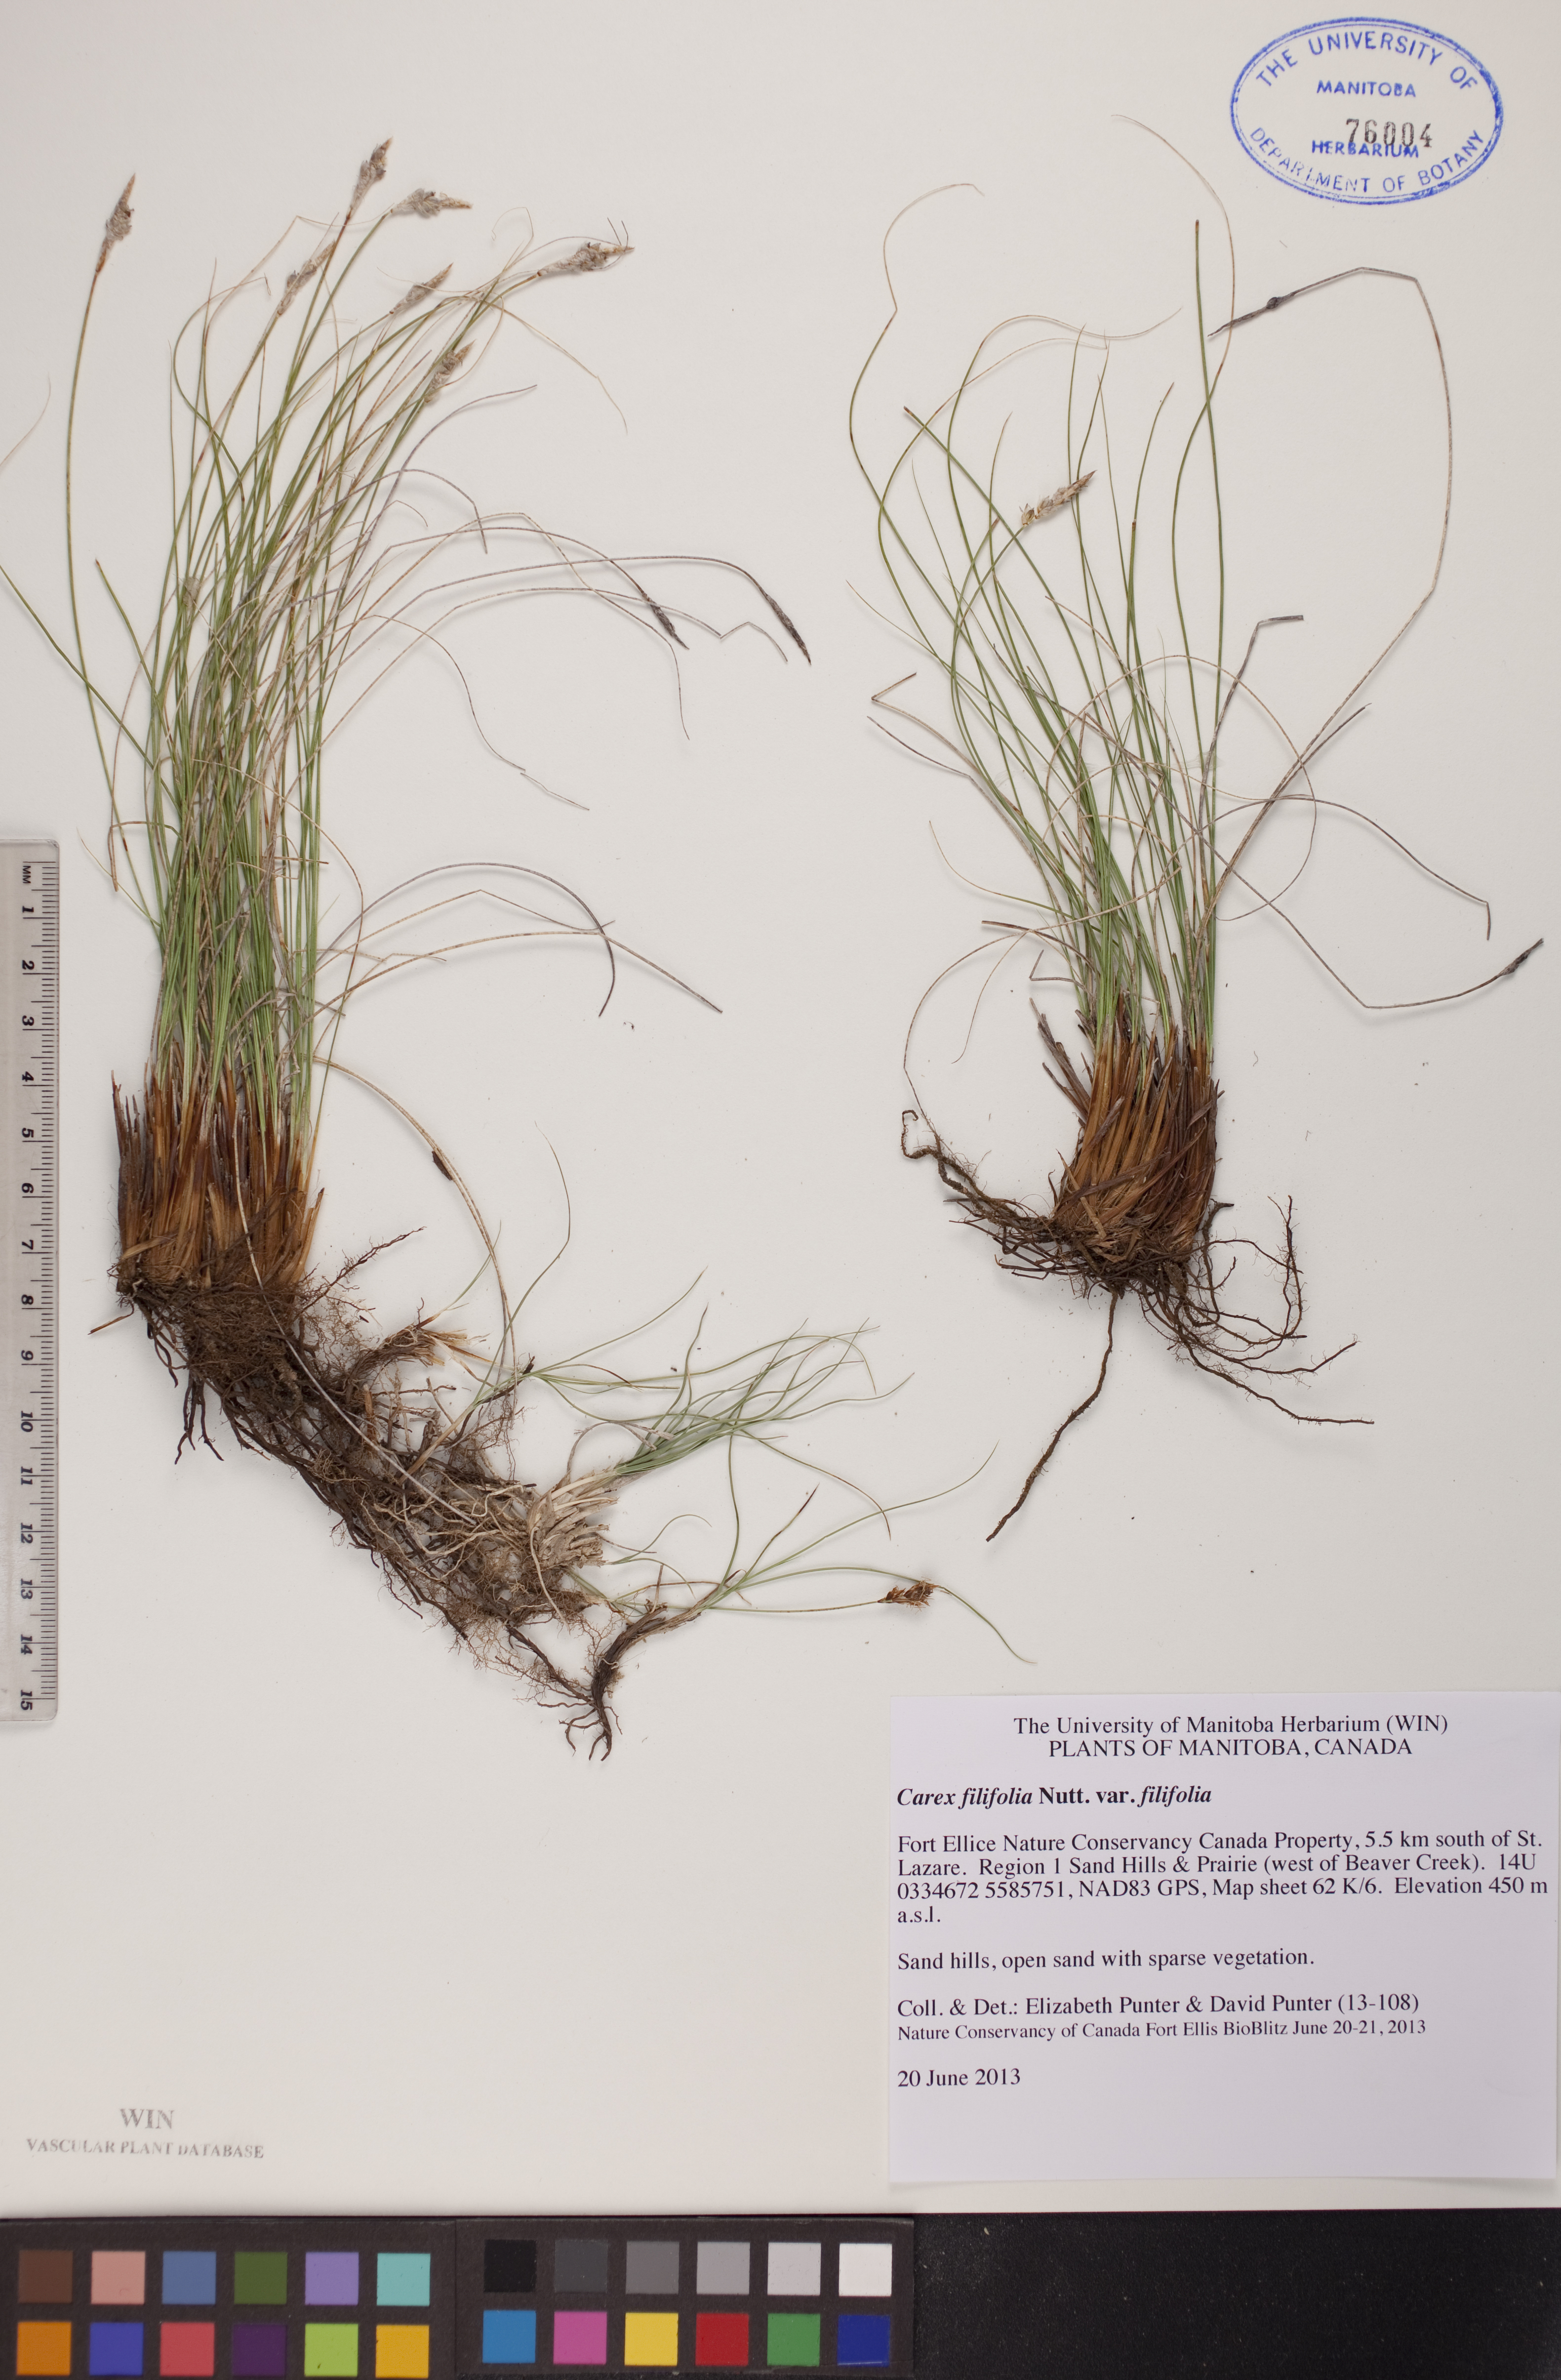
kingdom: Plantae
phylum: Tracheophyta
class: Liliopsida
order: Poales
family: Cyperaceae
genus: Carex
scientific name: Carex filifolia
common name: Threadleaf sedge
